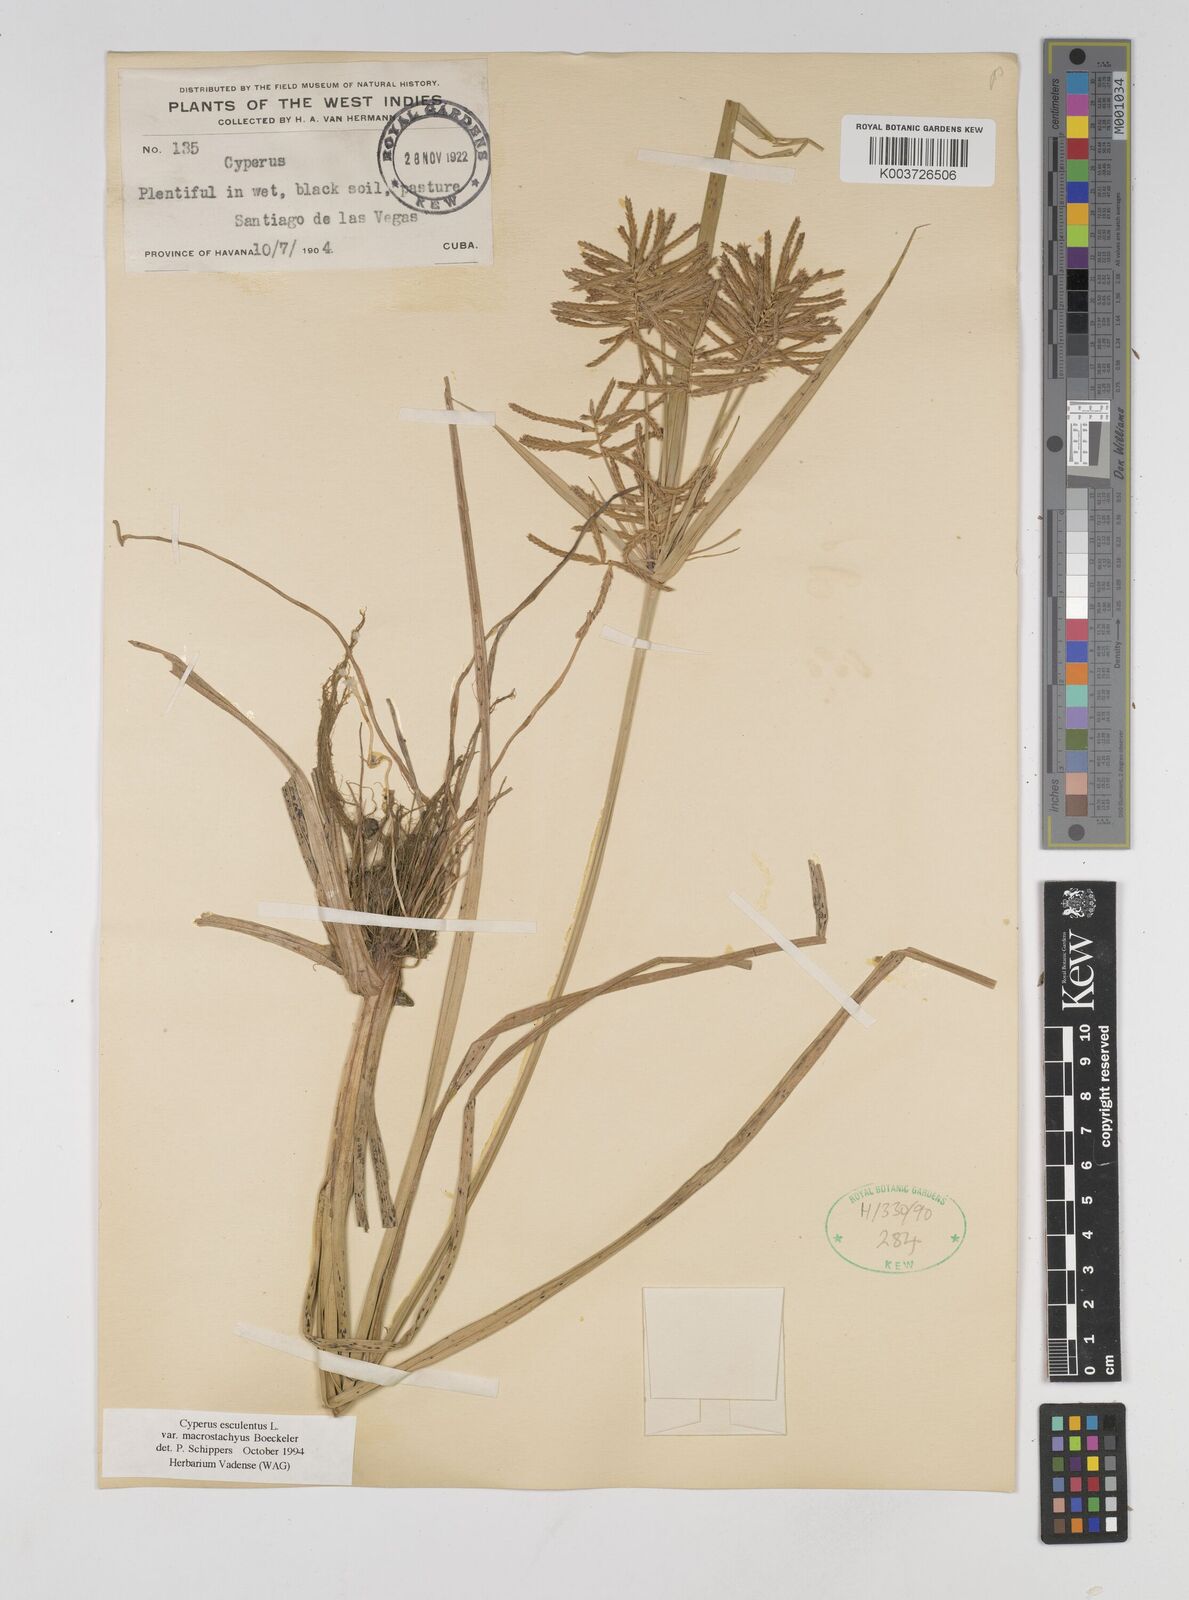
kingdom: Plantae
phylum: Tracheophyta
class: Liliopsida
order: Poales
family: Cyperaceae
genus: Cyperus
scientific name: Cyperus esculentus
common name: Yellow nutsedge
